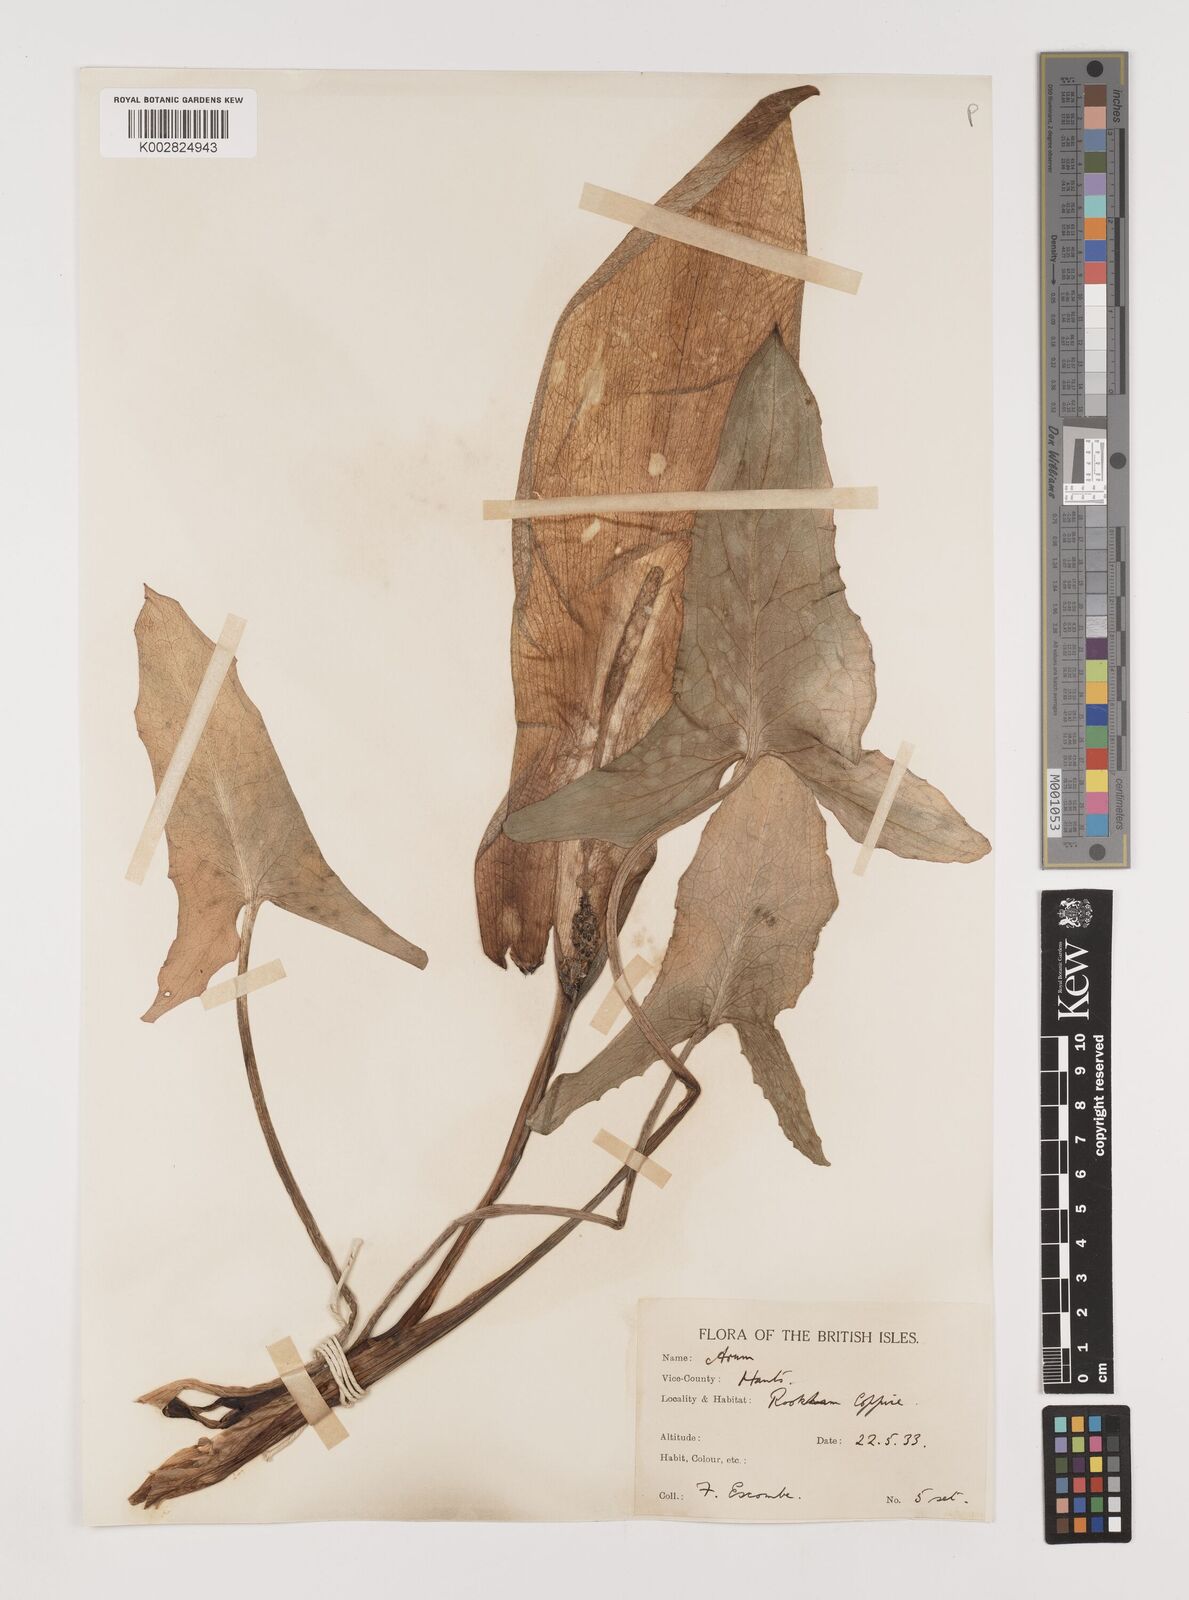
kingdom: Plantae
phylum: Tracheophyta
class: Liliopsida
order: Alismatales
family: Araceae
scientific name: Araceae
